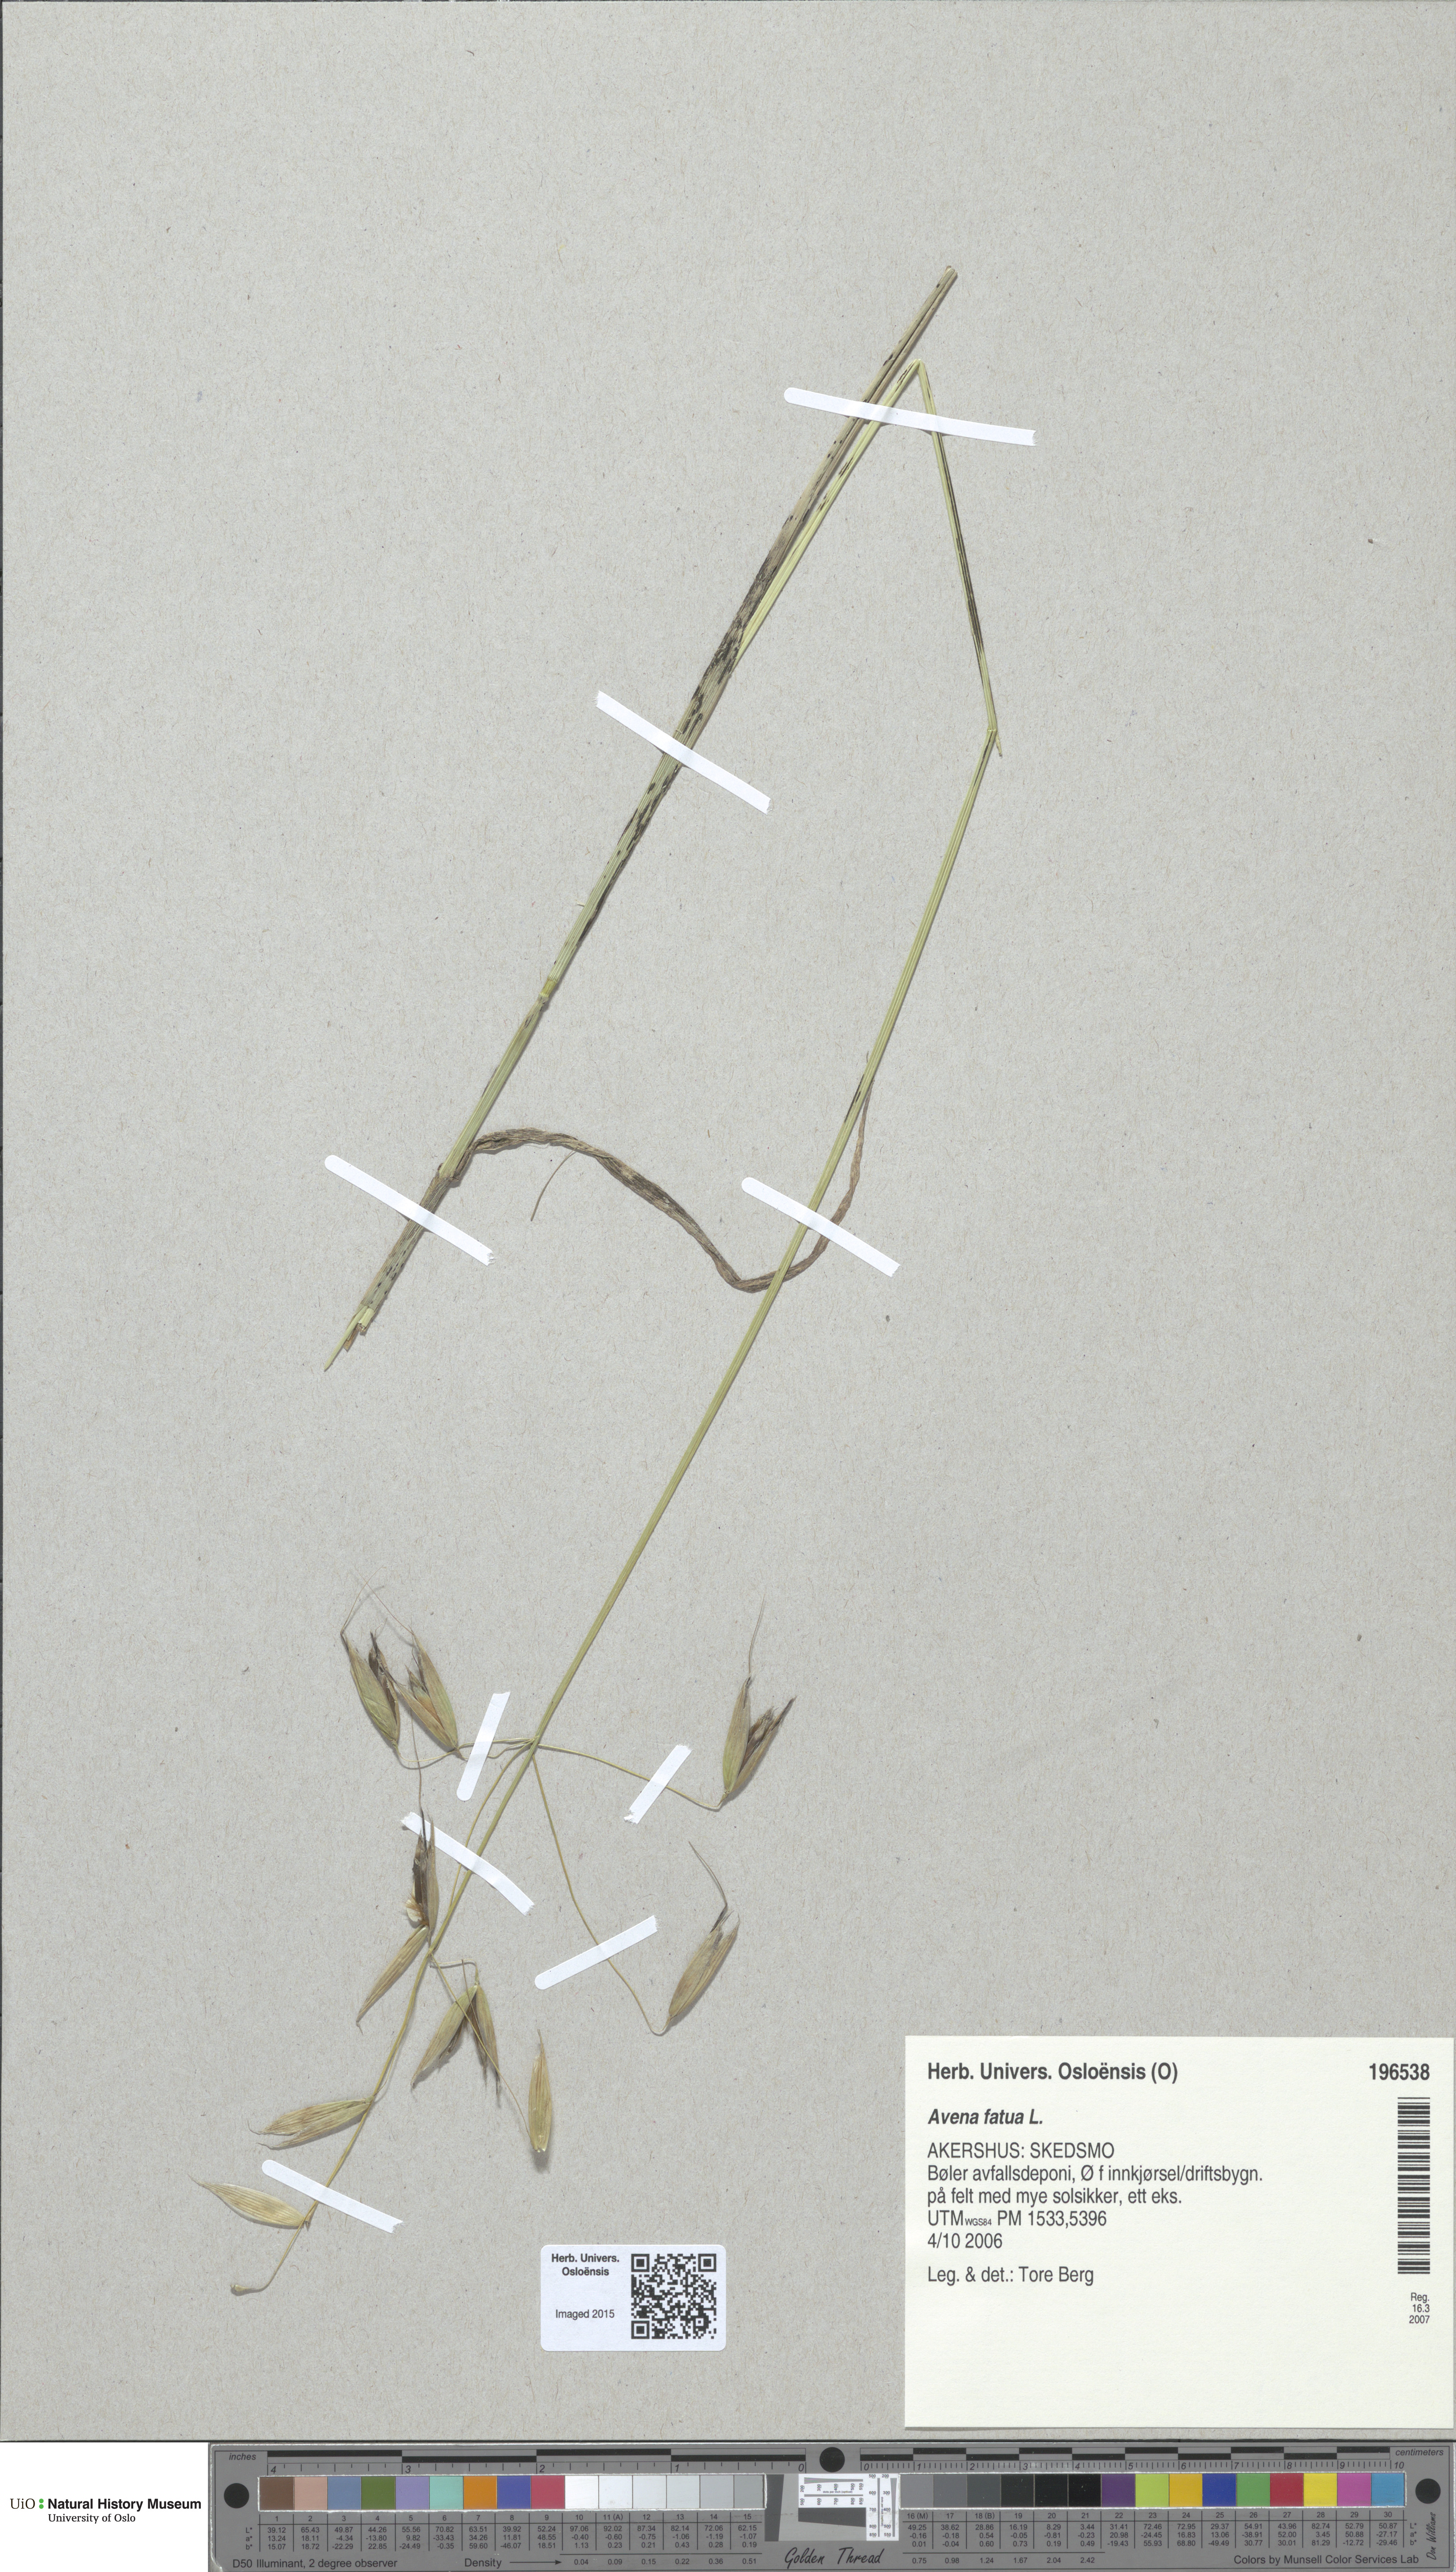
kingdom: Plantae
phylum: Tracheophyta
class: Liliopsida
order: Poales
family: Poaceae
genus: Avena
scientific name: Avena fatua
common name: Wild oat
